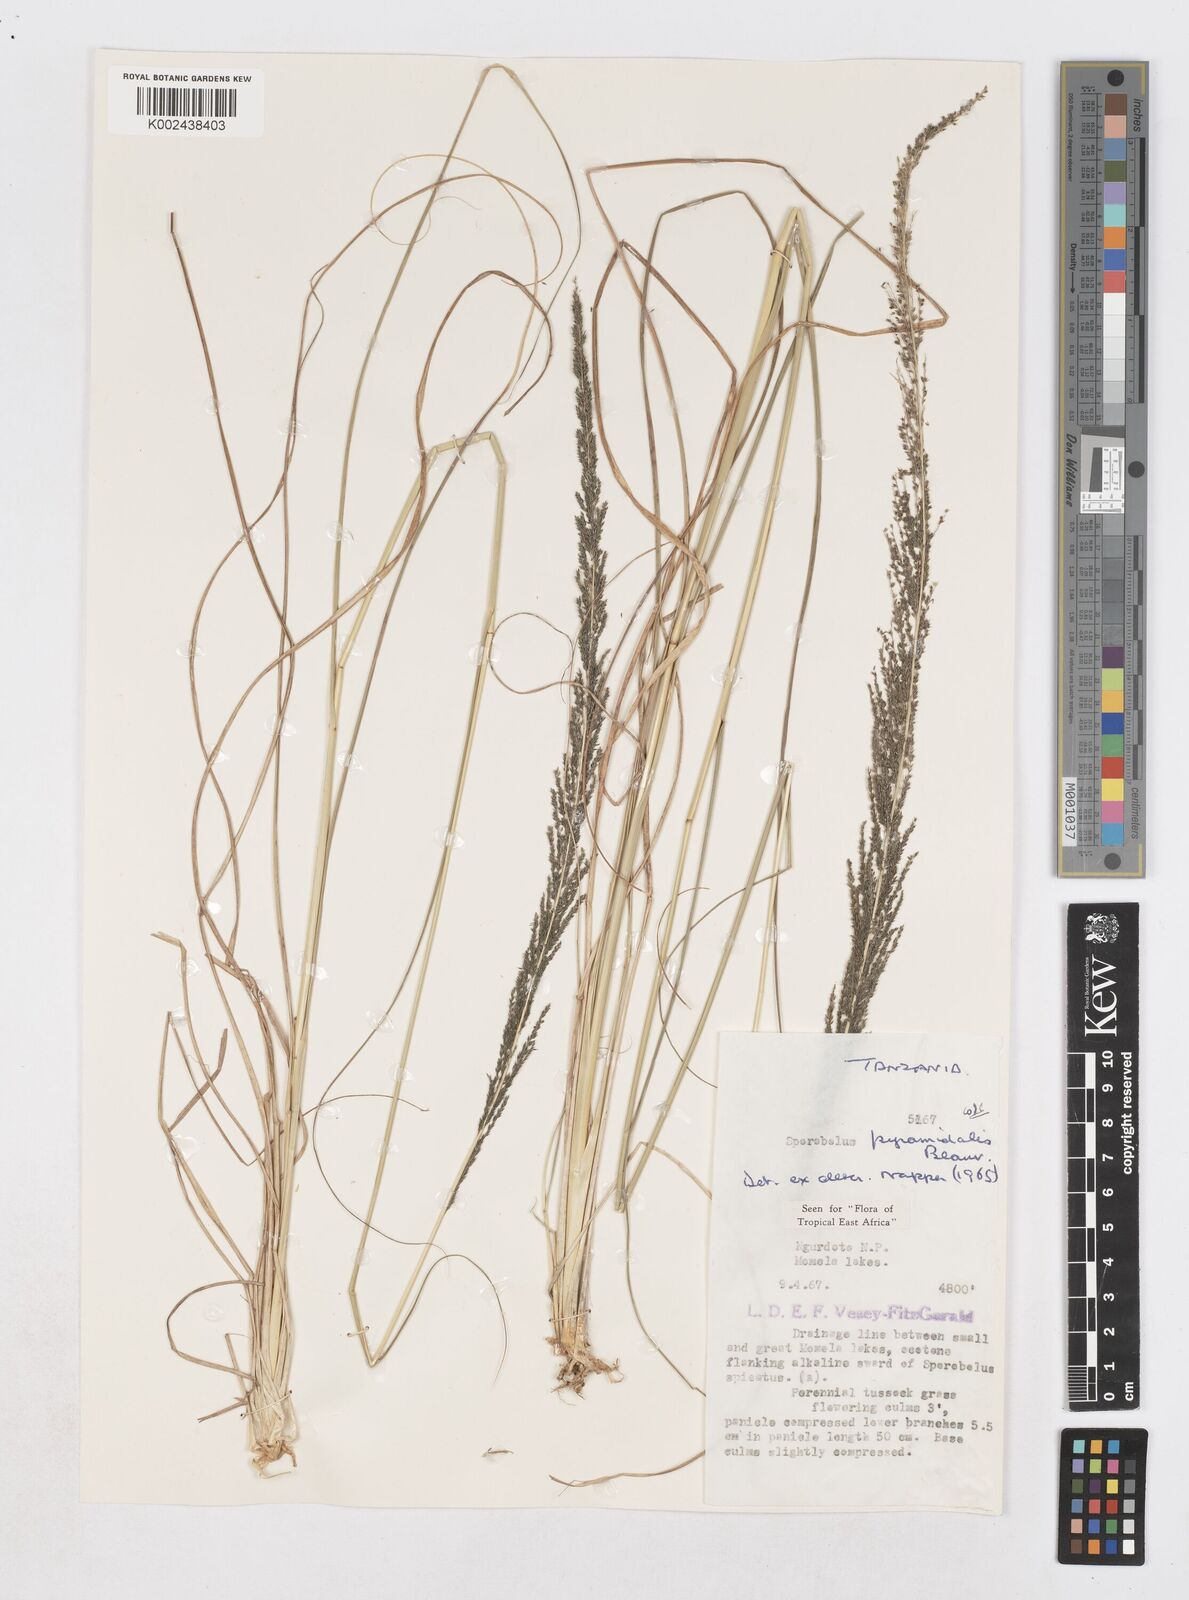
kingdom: Plantae
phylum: Tracheophyta
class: Liliopsida
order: Poales
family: Poaceae
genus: Sporobolus
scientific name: Sporobolus pyramidalis
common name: West indian dropseed
